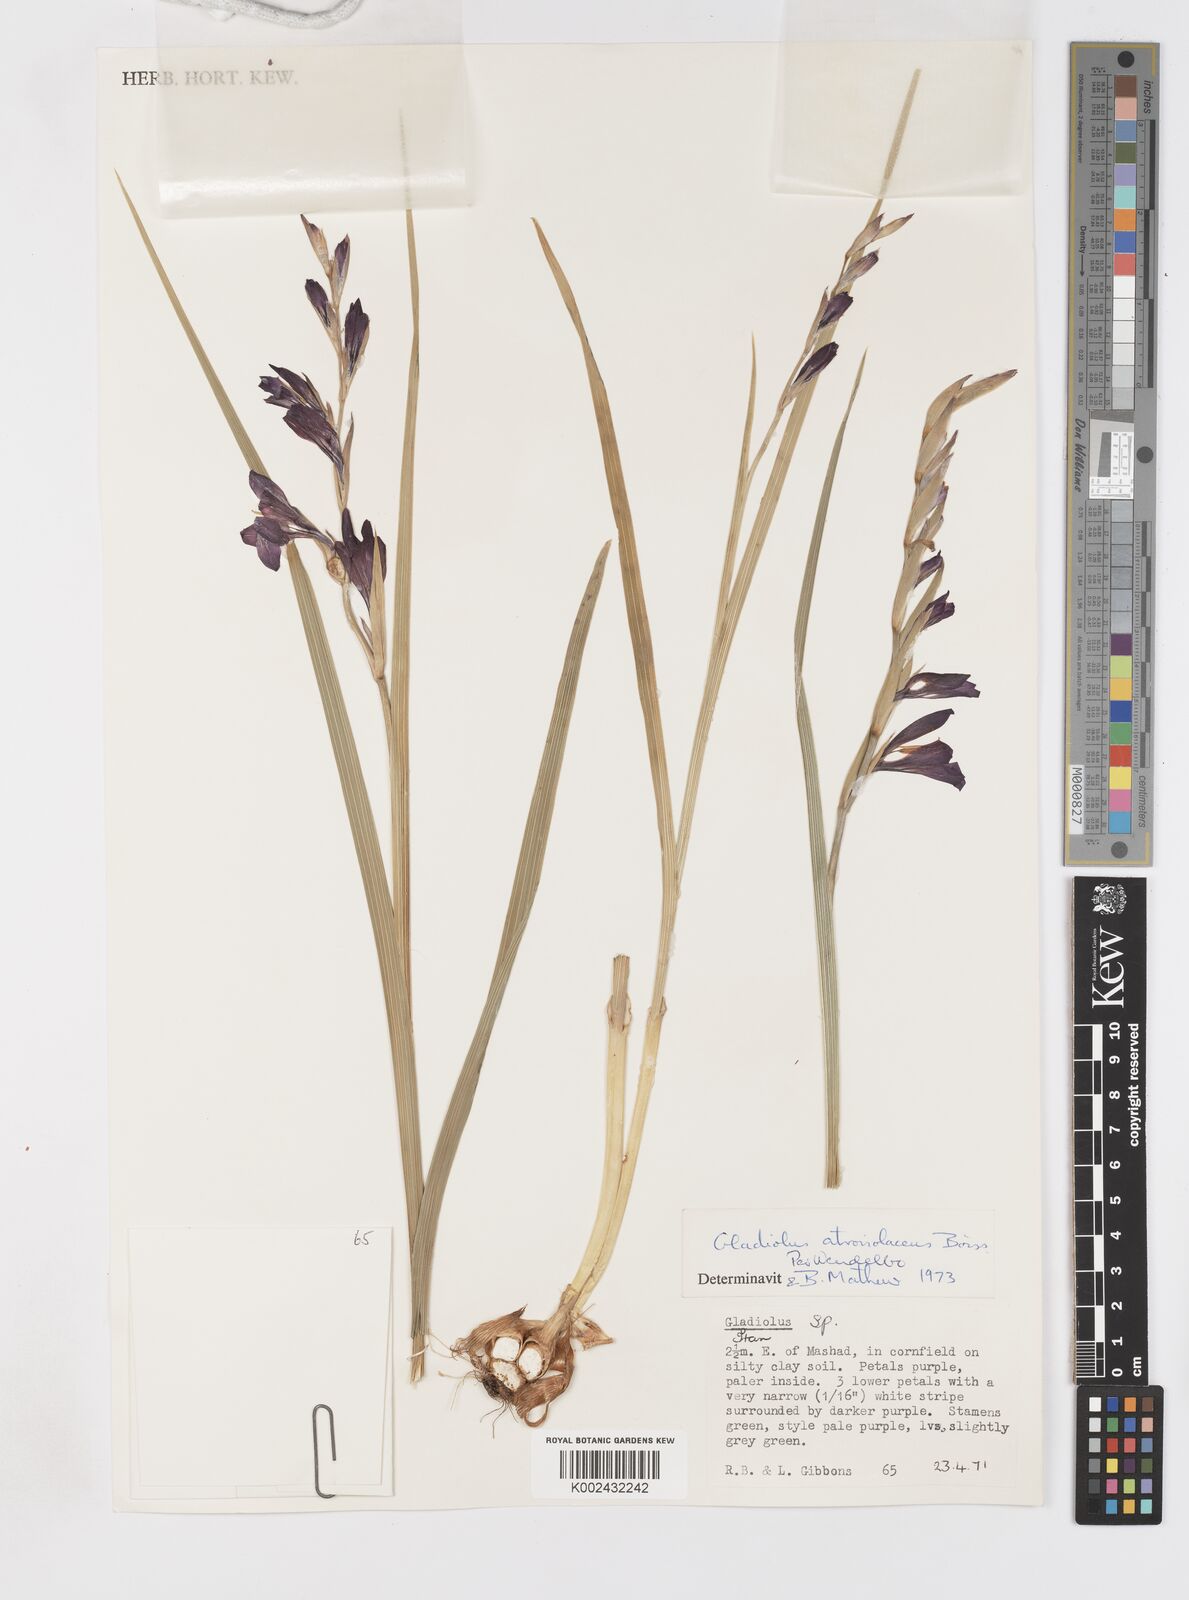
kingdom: Plantae
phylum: Tracheophyta
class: Liliopsida
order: Asparagales
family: Iridaceae
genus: Gladiolus
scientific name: Gladiolus atroviolaceus
